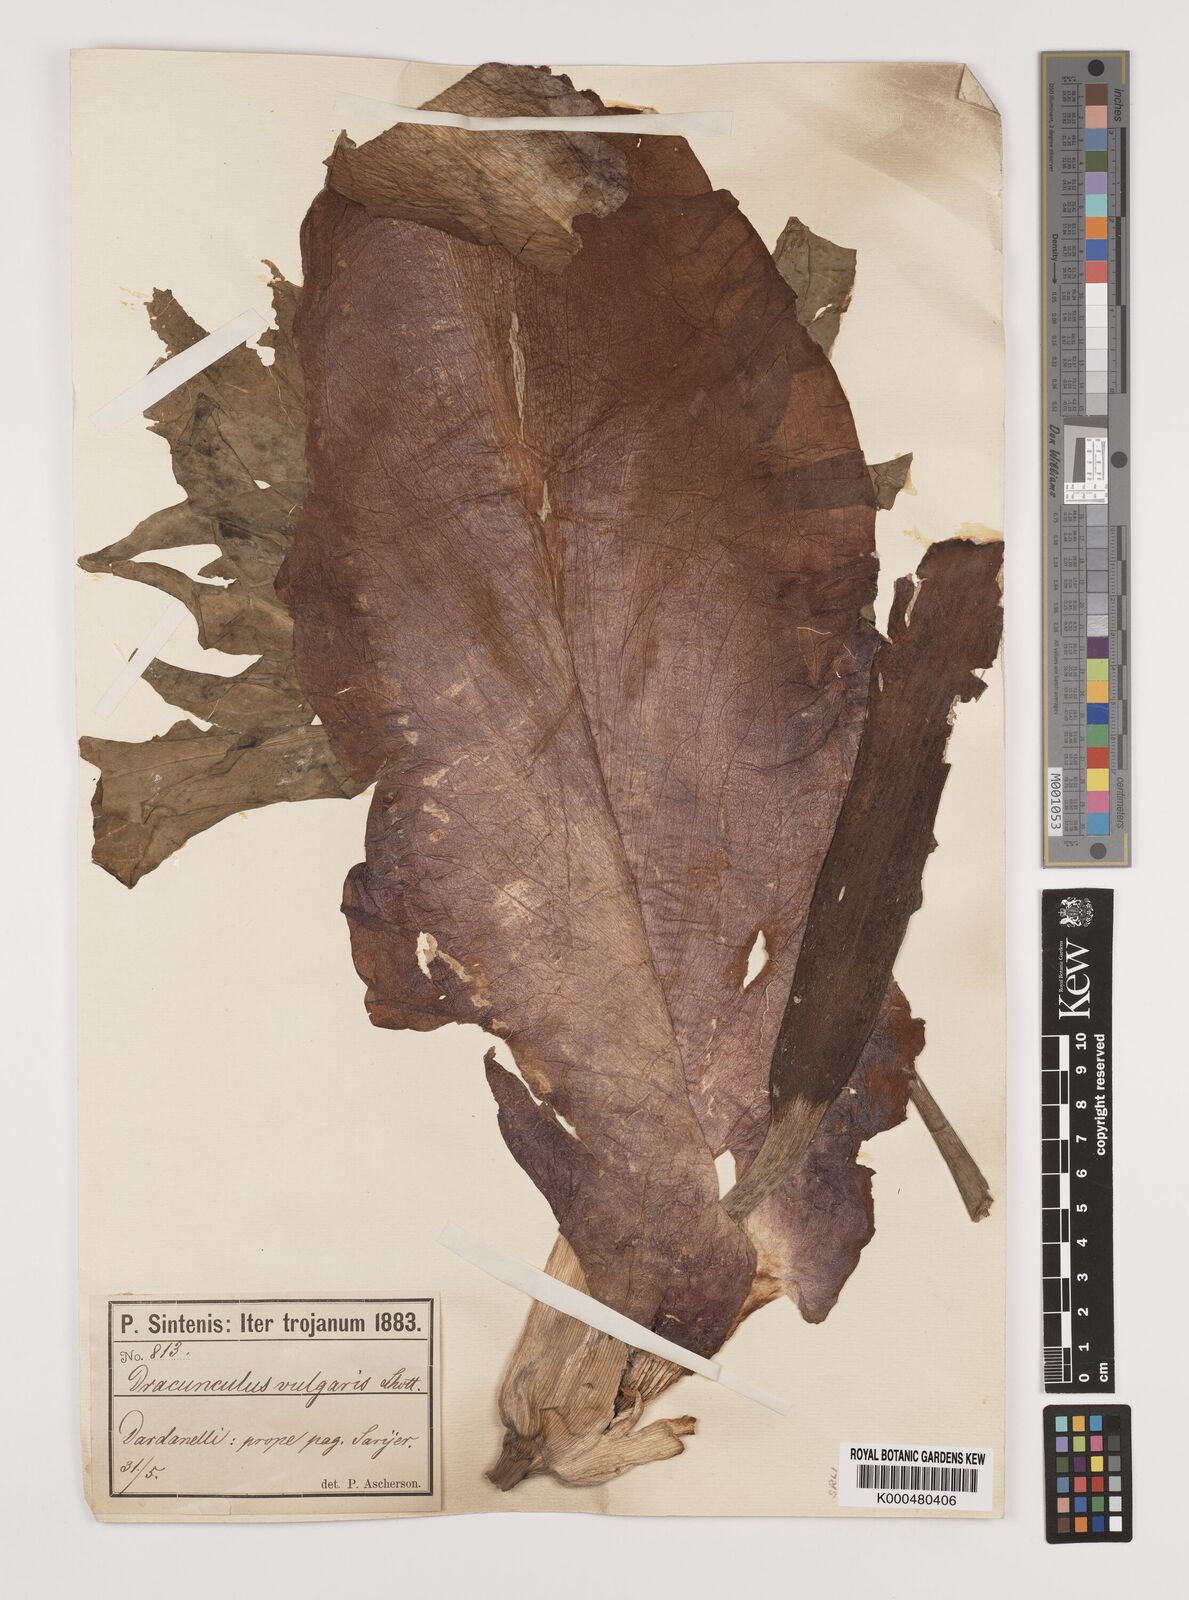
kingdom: Plantae
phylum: Tracheophyta
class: Liliopsida
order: Alismatales
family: Araceae
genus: Dracunculus
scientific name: Dracunculus vulgaris
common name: Dragon arum
